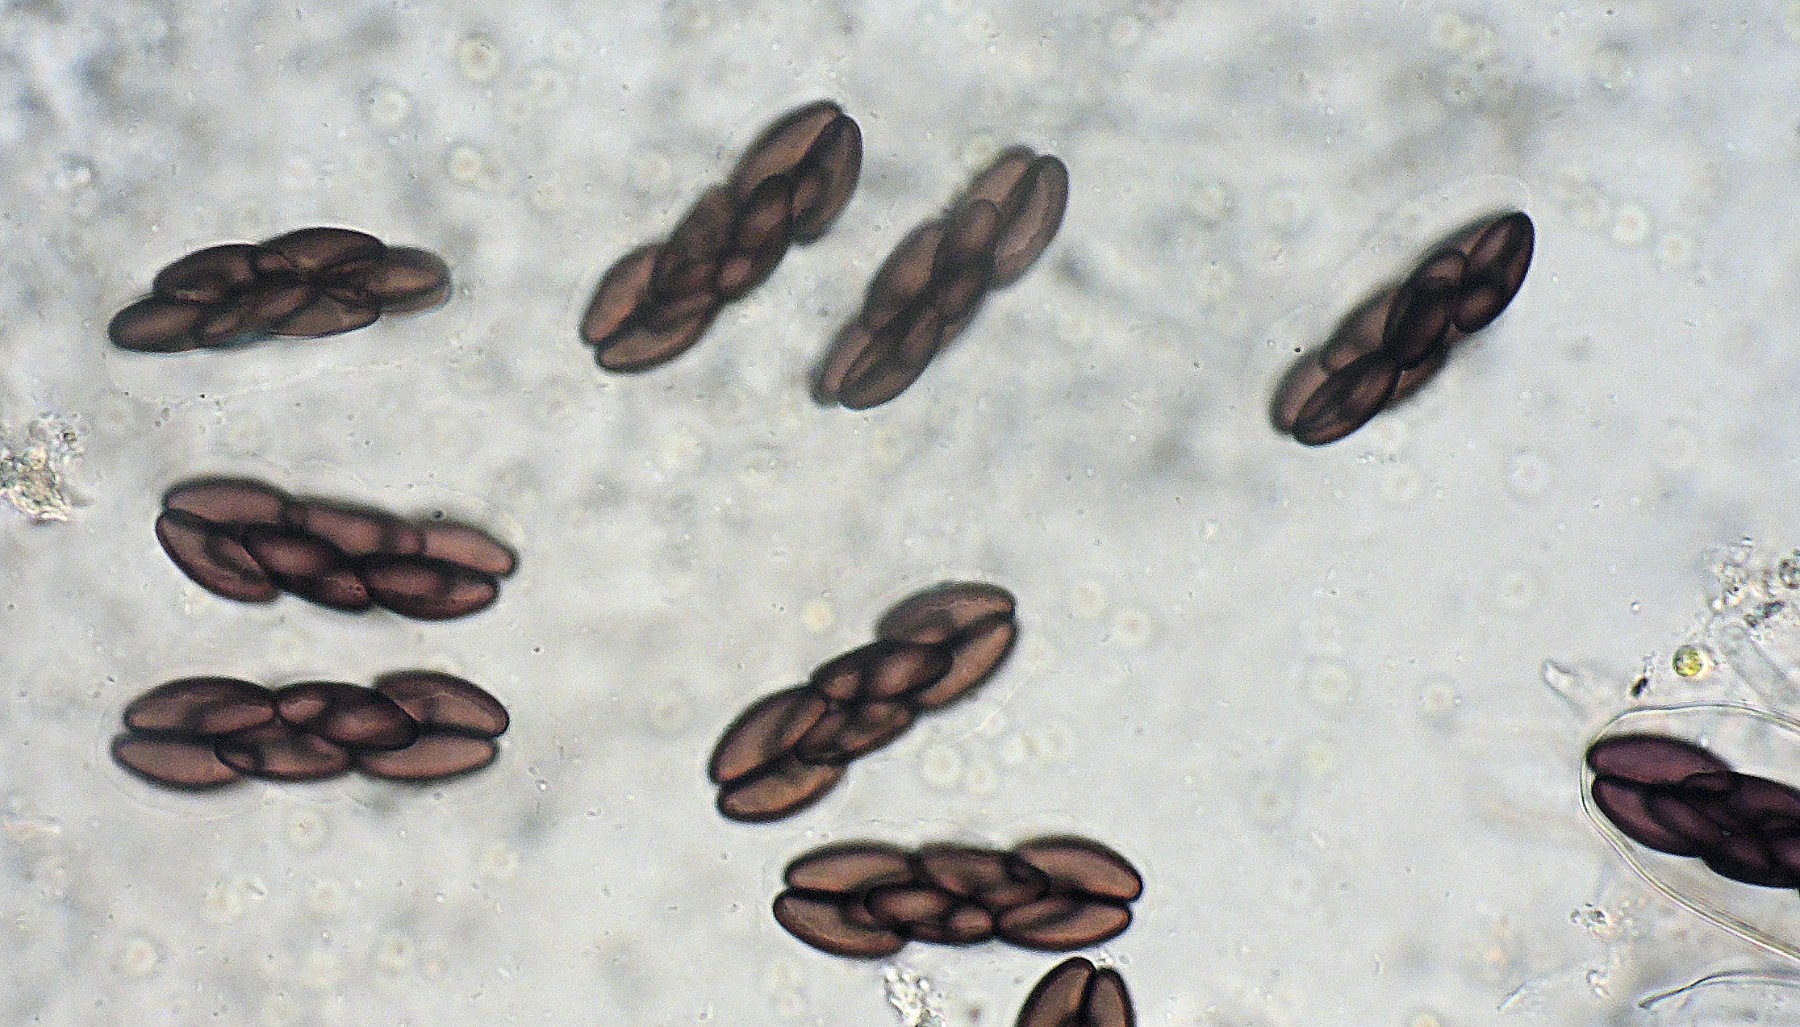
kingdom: Fungi
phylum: Ascomycota
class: Pezizomycetes
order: Pezizales
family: Ascobolaceae
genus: Saccobolus
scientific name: Saccobolus truncatus
